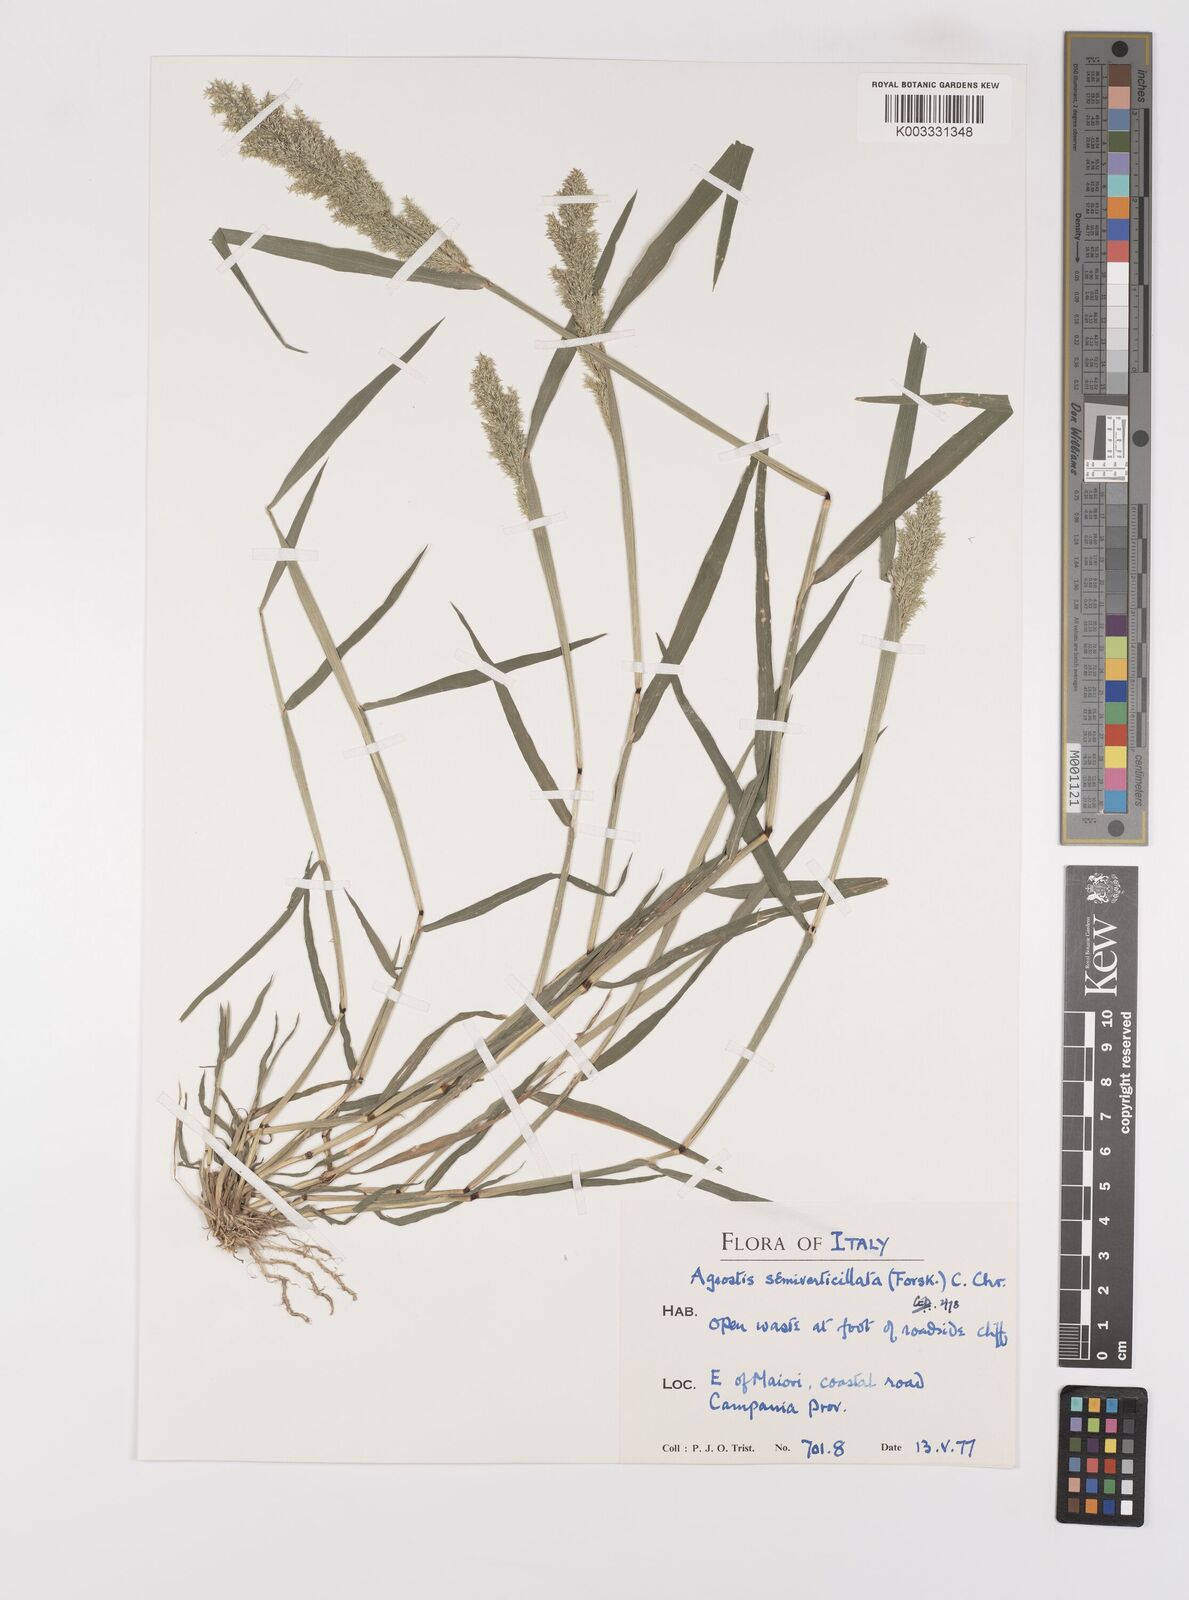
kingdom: Plantae
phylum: Tracheophyta
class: Liliopsida
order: Poales
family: Poaceae
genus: Polypogon
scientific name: Polypogon viridis
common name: Water bent
